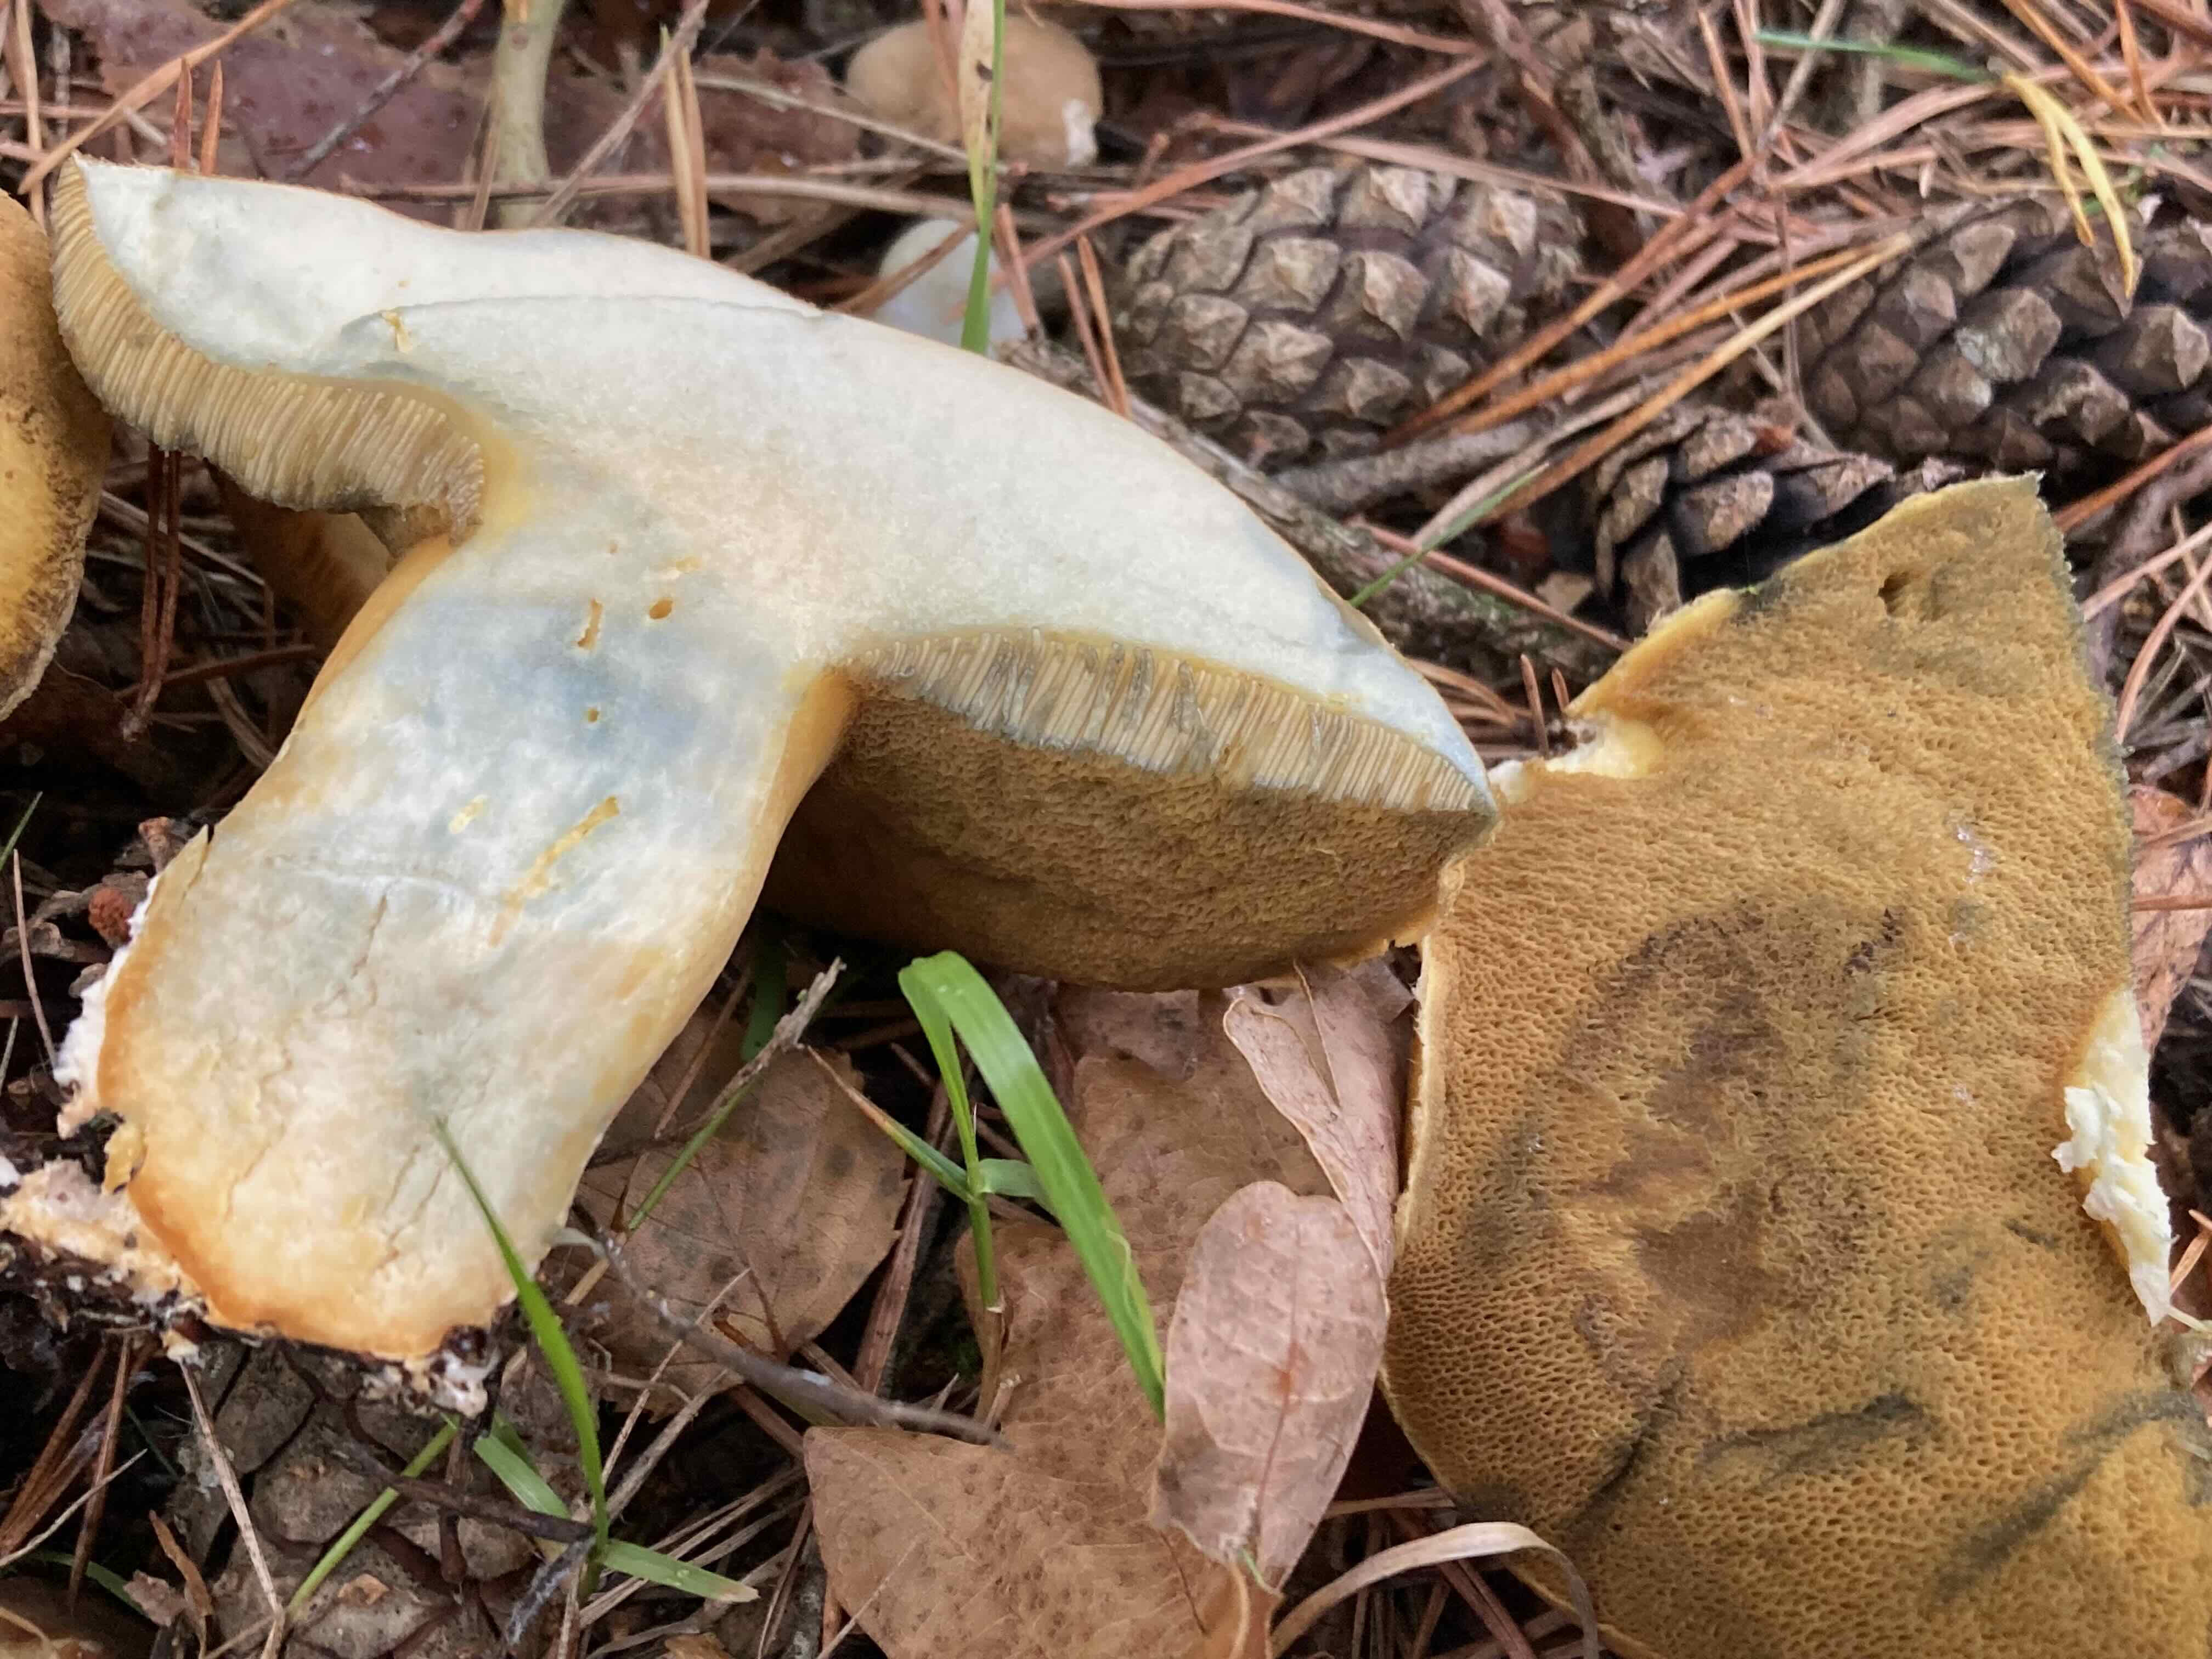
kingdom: Fungi
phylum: Basidiomycota
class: Agaricomycetes
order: Boletales
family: Suillaceae
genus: Suillus
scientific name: Suillus variegatus
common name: broget slimrørhat
